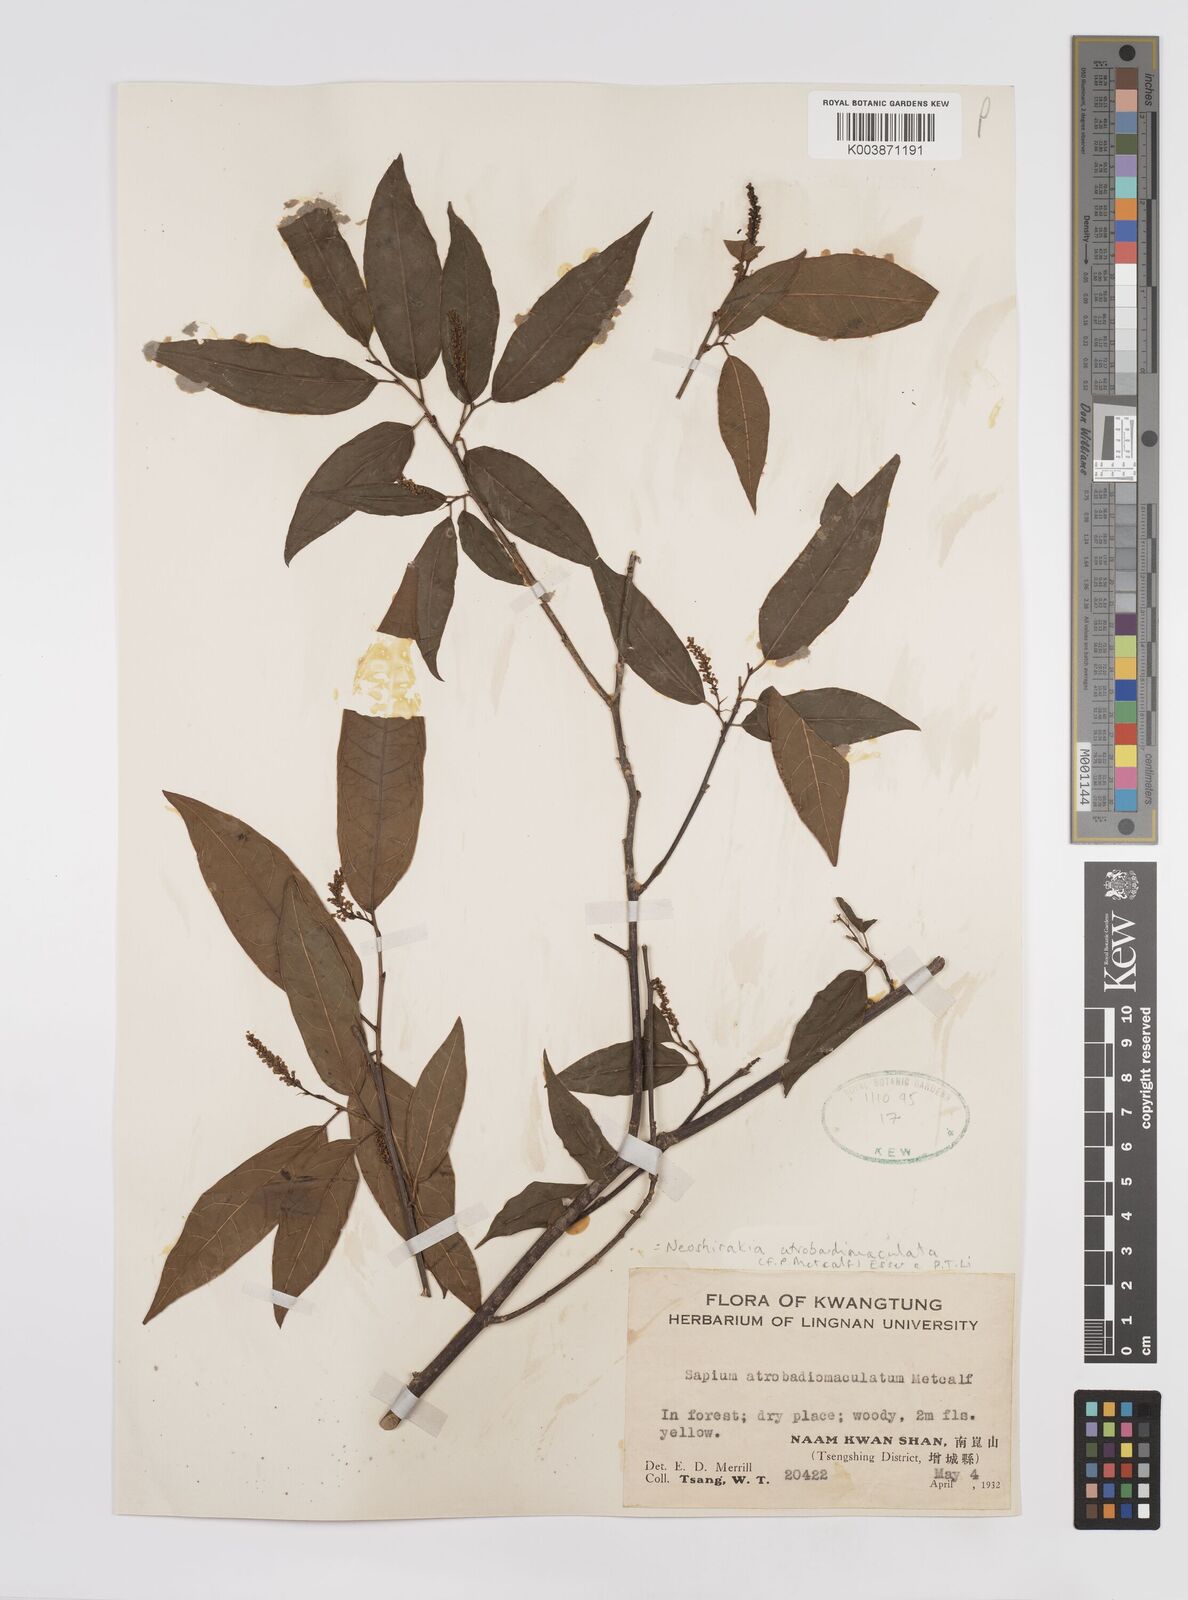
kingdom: Plantae
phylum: Tracheophyta
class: Magnoliopsida
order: Malpighiales
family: Euphorbiaceae
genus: Neoshirakia
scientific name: Neoshirakia atrobadiomaculata
